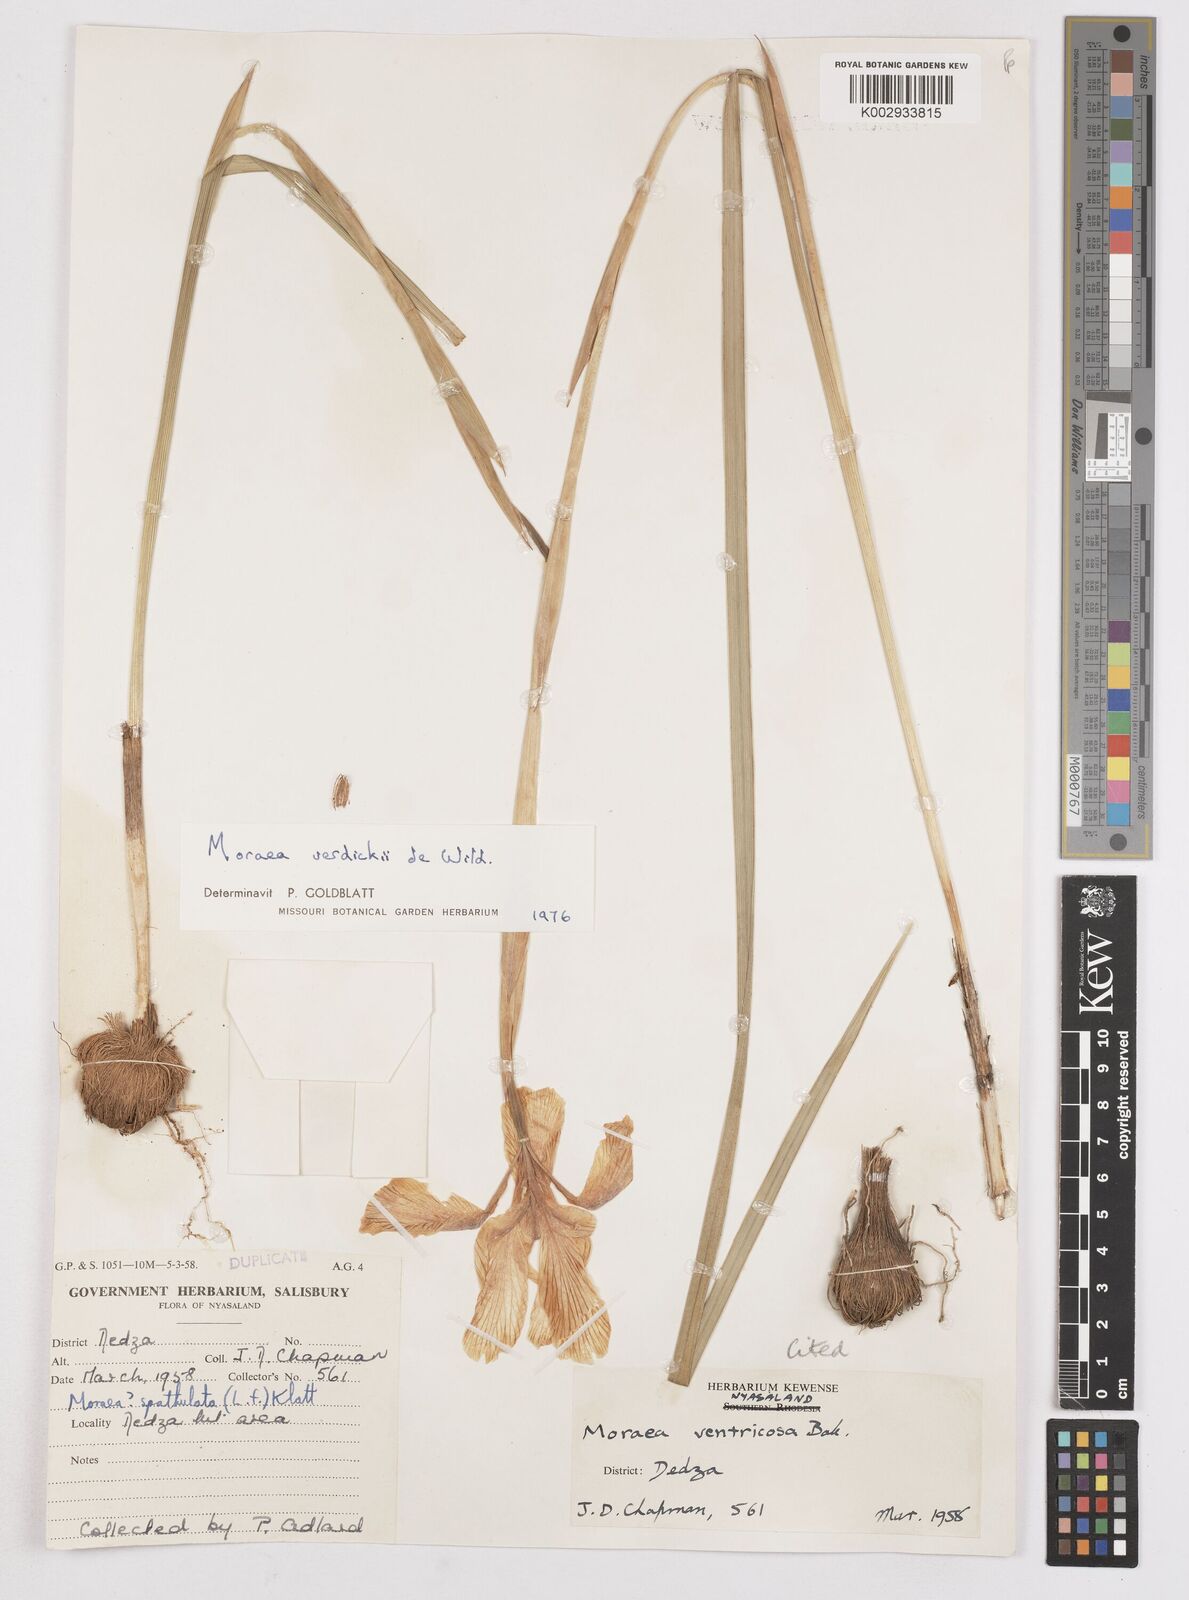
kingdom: Plantae
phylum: Tracheophyta
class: Liliopsida
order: Asparagales
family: Iridaceae
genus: Moraea
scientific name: Moraea verdickii
